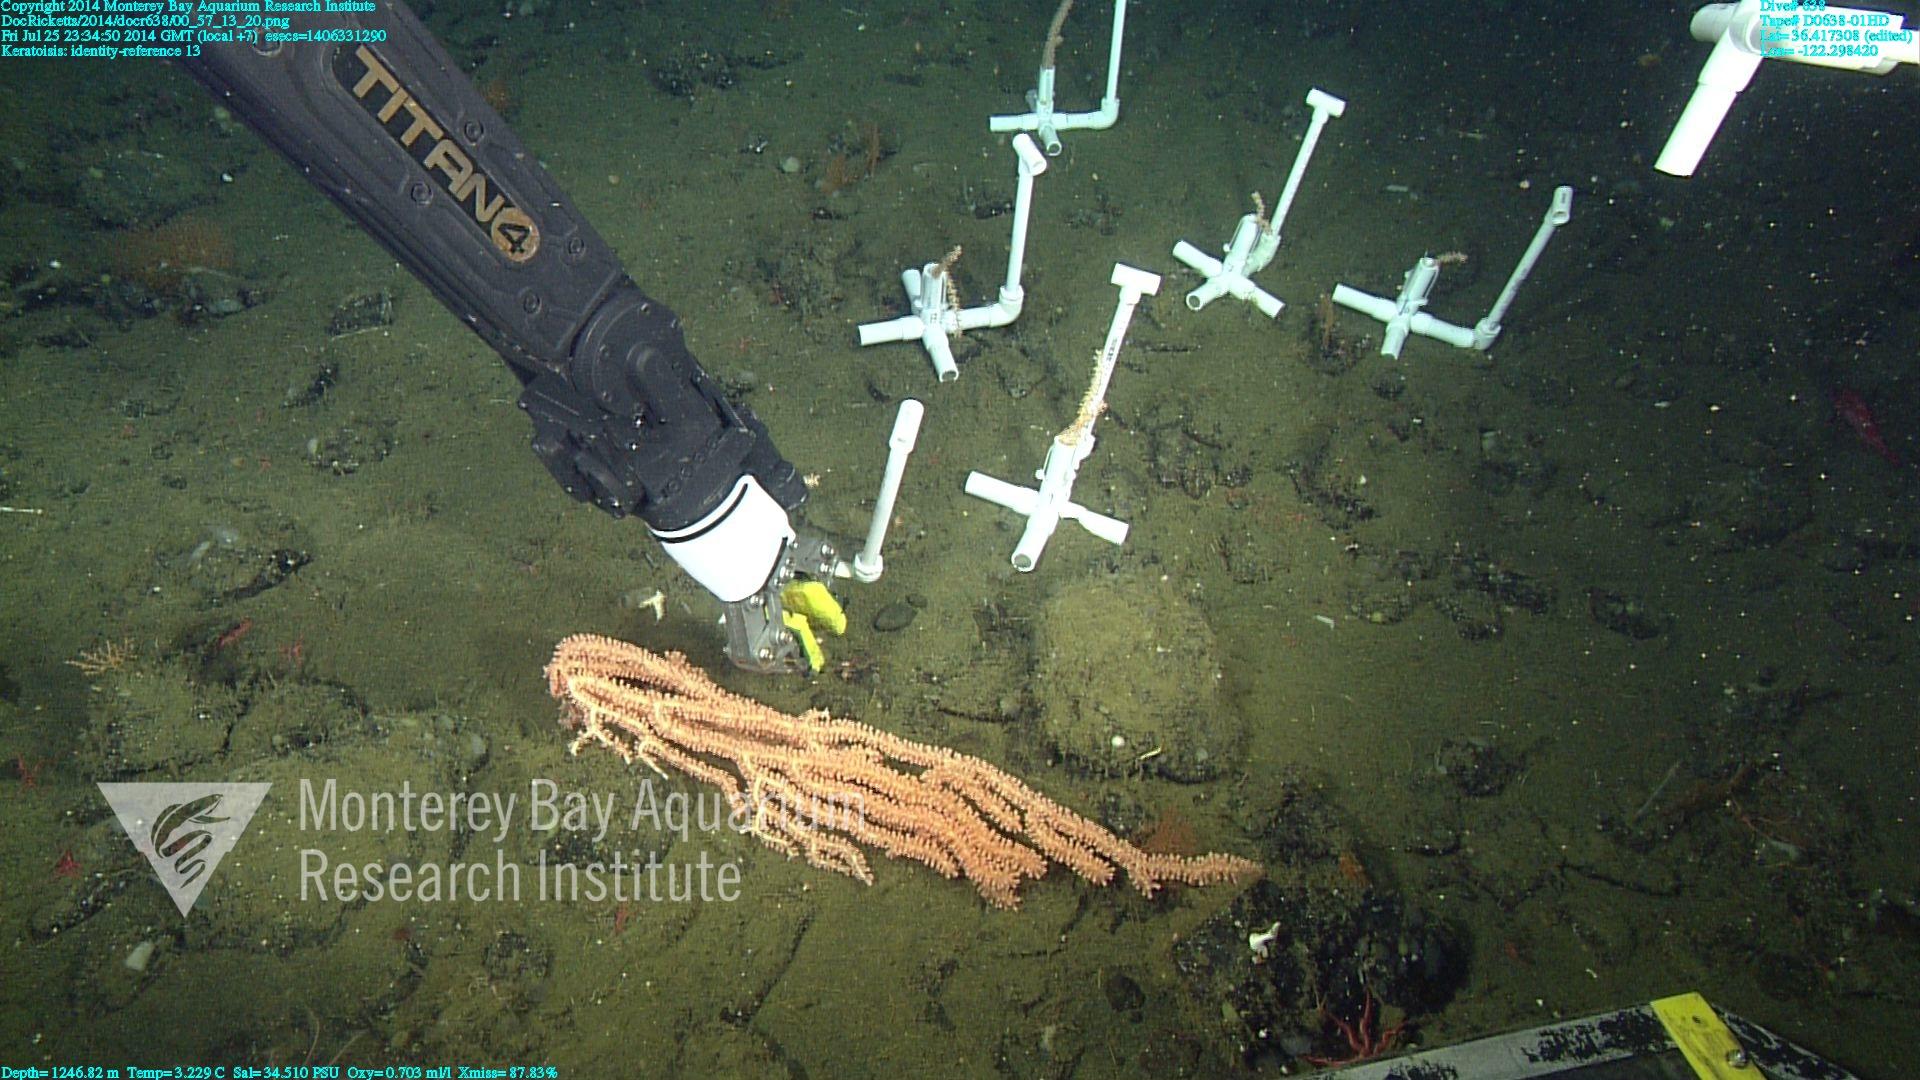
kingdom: Animalia
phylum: Cnidaria
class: Anthozoa
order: Scleralcyonacea
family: Keratoisididae
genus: Keratoisis
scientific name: Keratoisis
